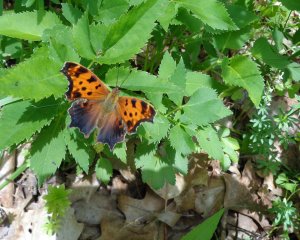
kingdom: Animalia
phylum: Arthropoda
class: Insecta
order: Lepidoptera
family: Nymphalidae
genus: Polygonia
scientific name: Polygonia comma
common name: Eastern Comma
